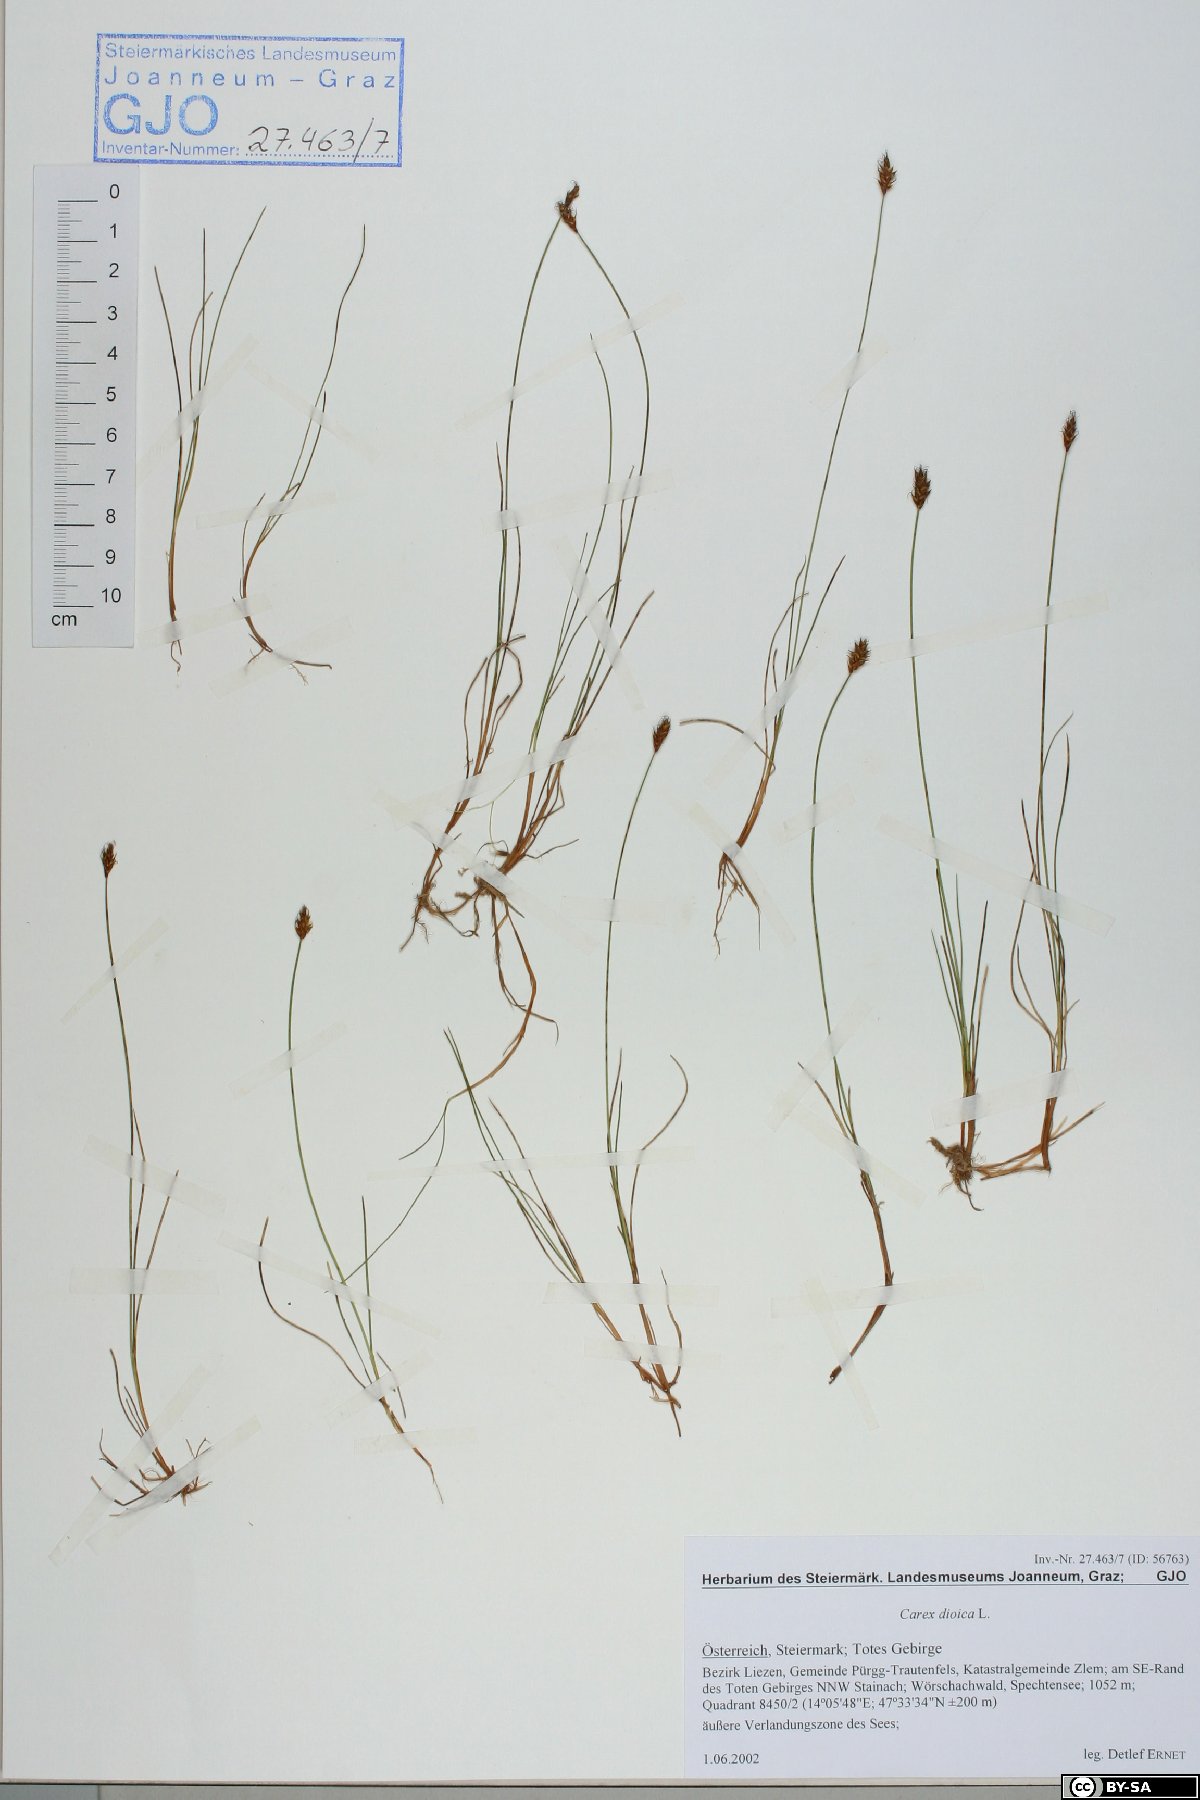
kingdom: Plantae
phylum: Tracheophyta
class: Liliopsida
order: Poales
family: Cyperaceae
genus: Carex
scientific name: Carex dioica
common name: Dioecious sedge
